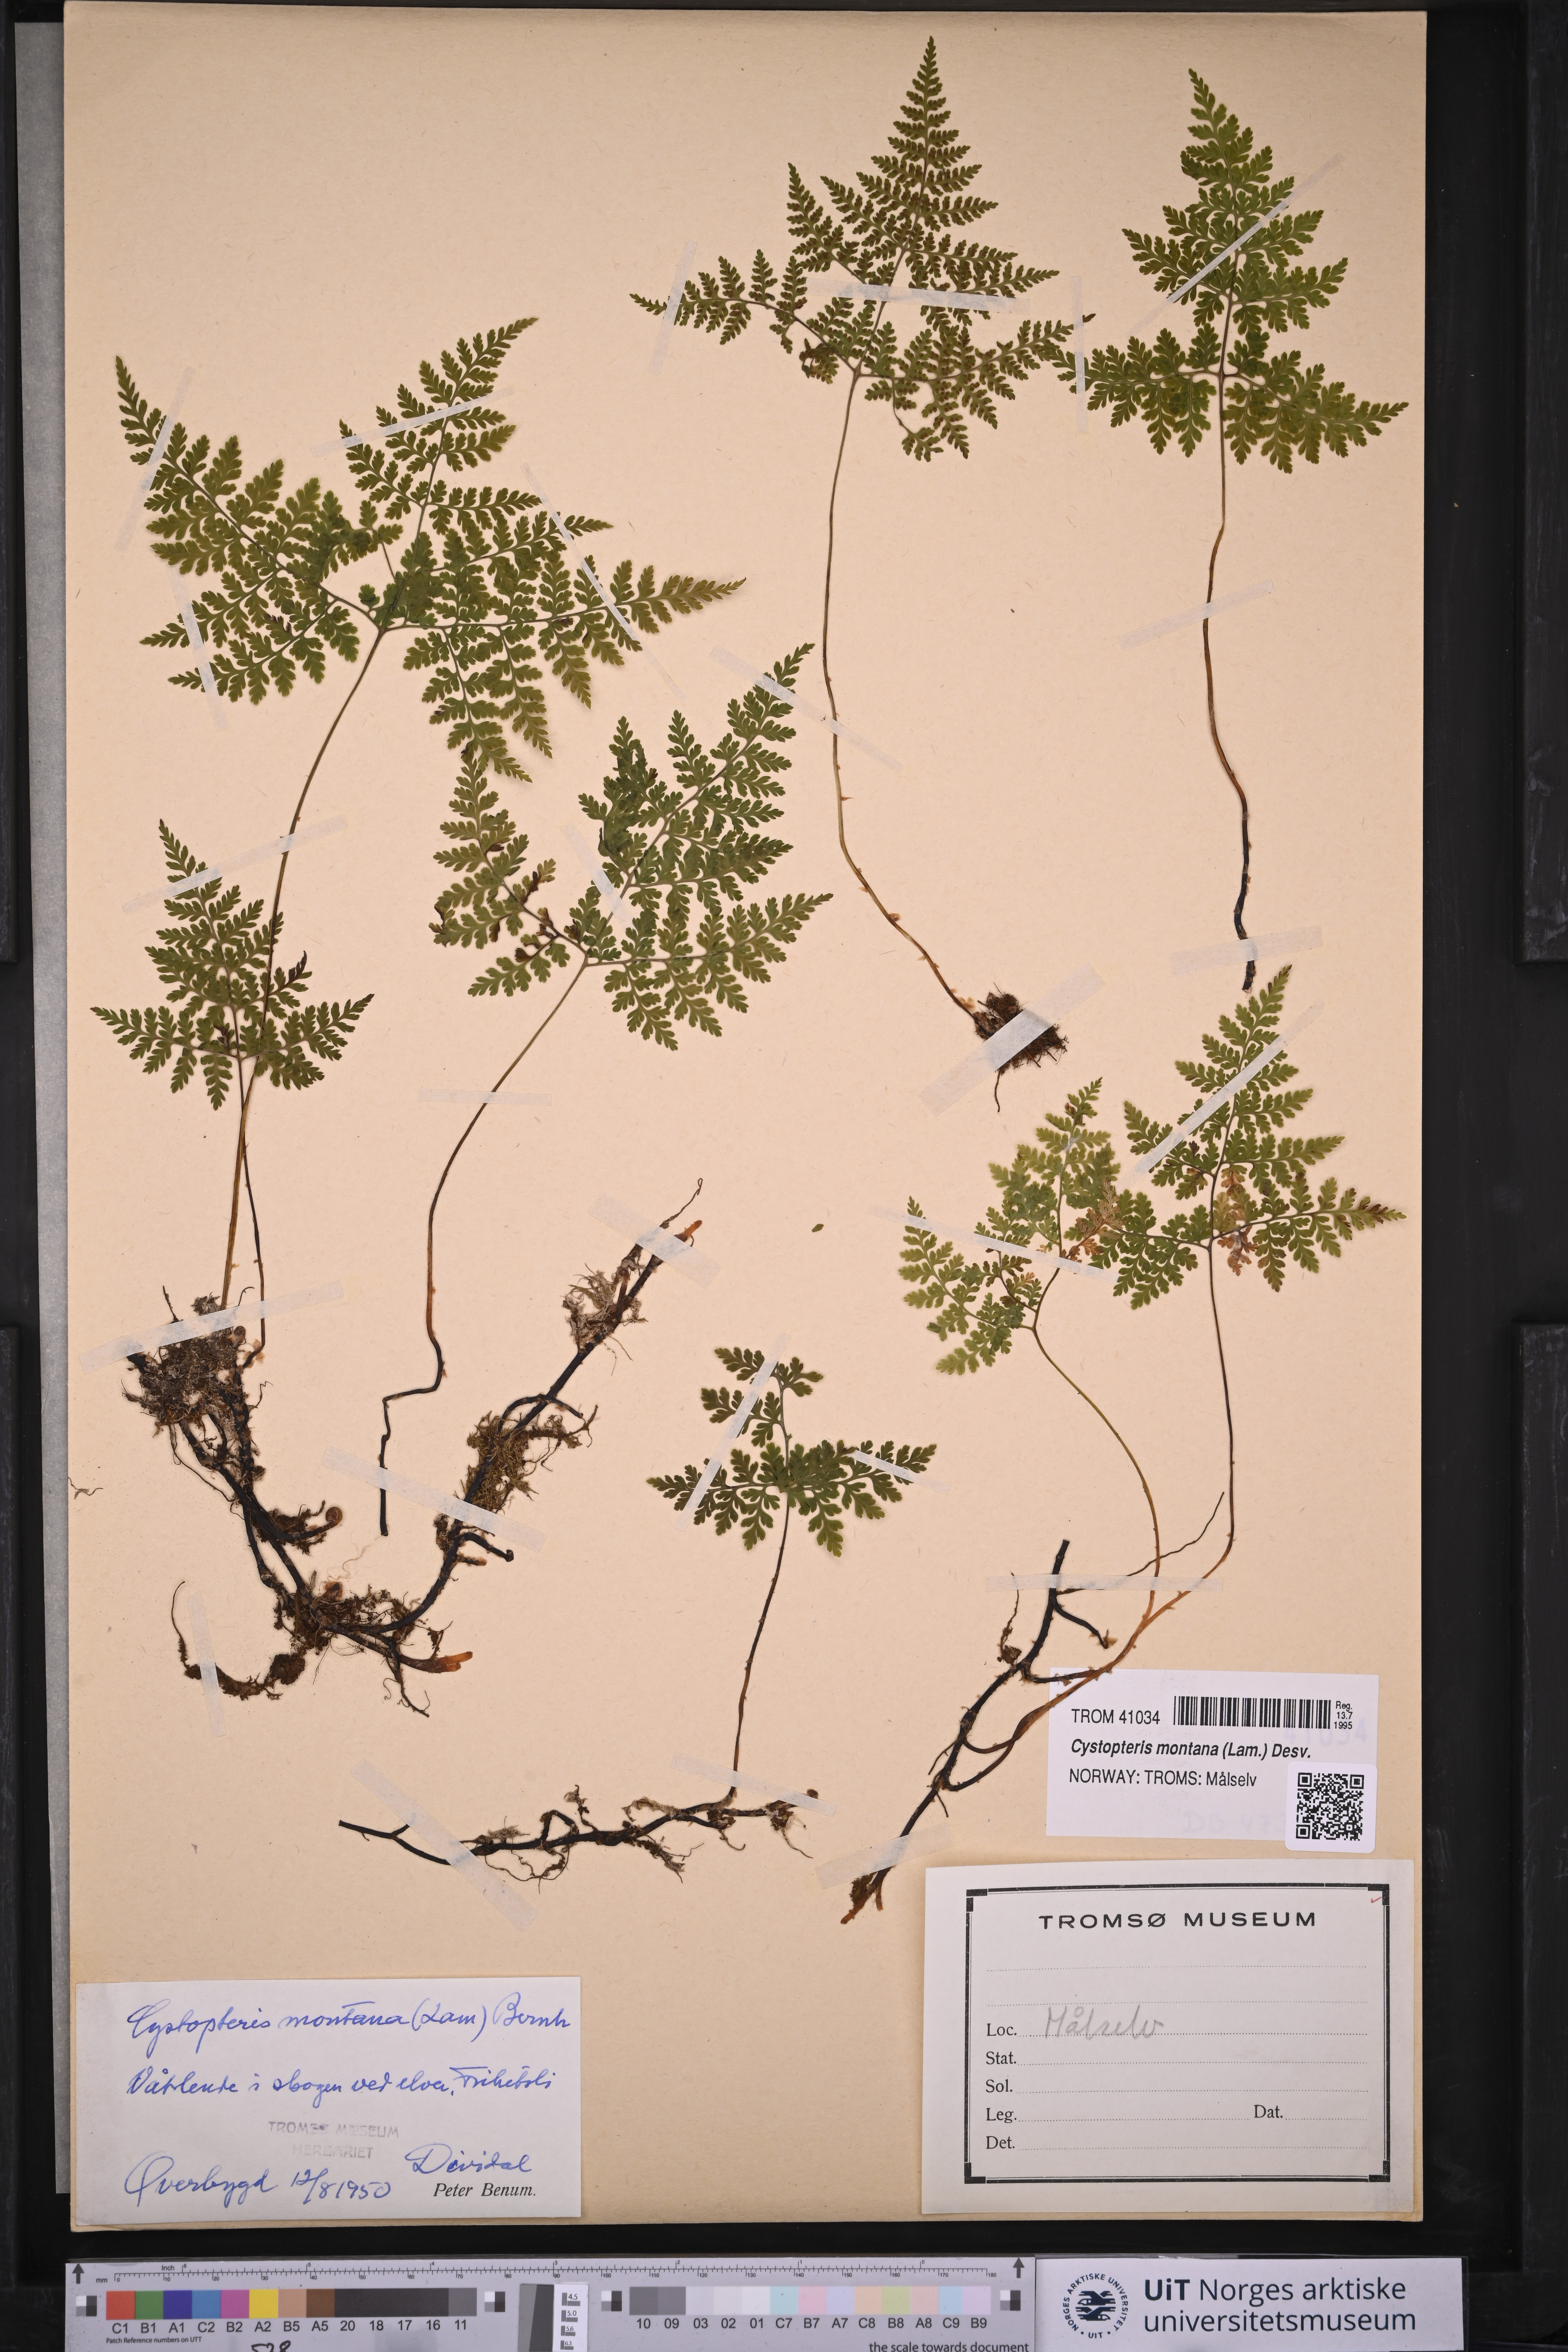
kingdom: Plantae
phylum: Tracheophyta
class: Polypodiopsida
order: Polypodiales
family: Cystopteridaceae
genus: Cystopteris
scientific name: Cystopteris montana
